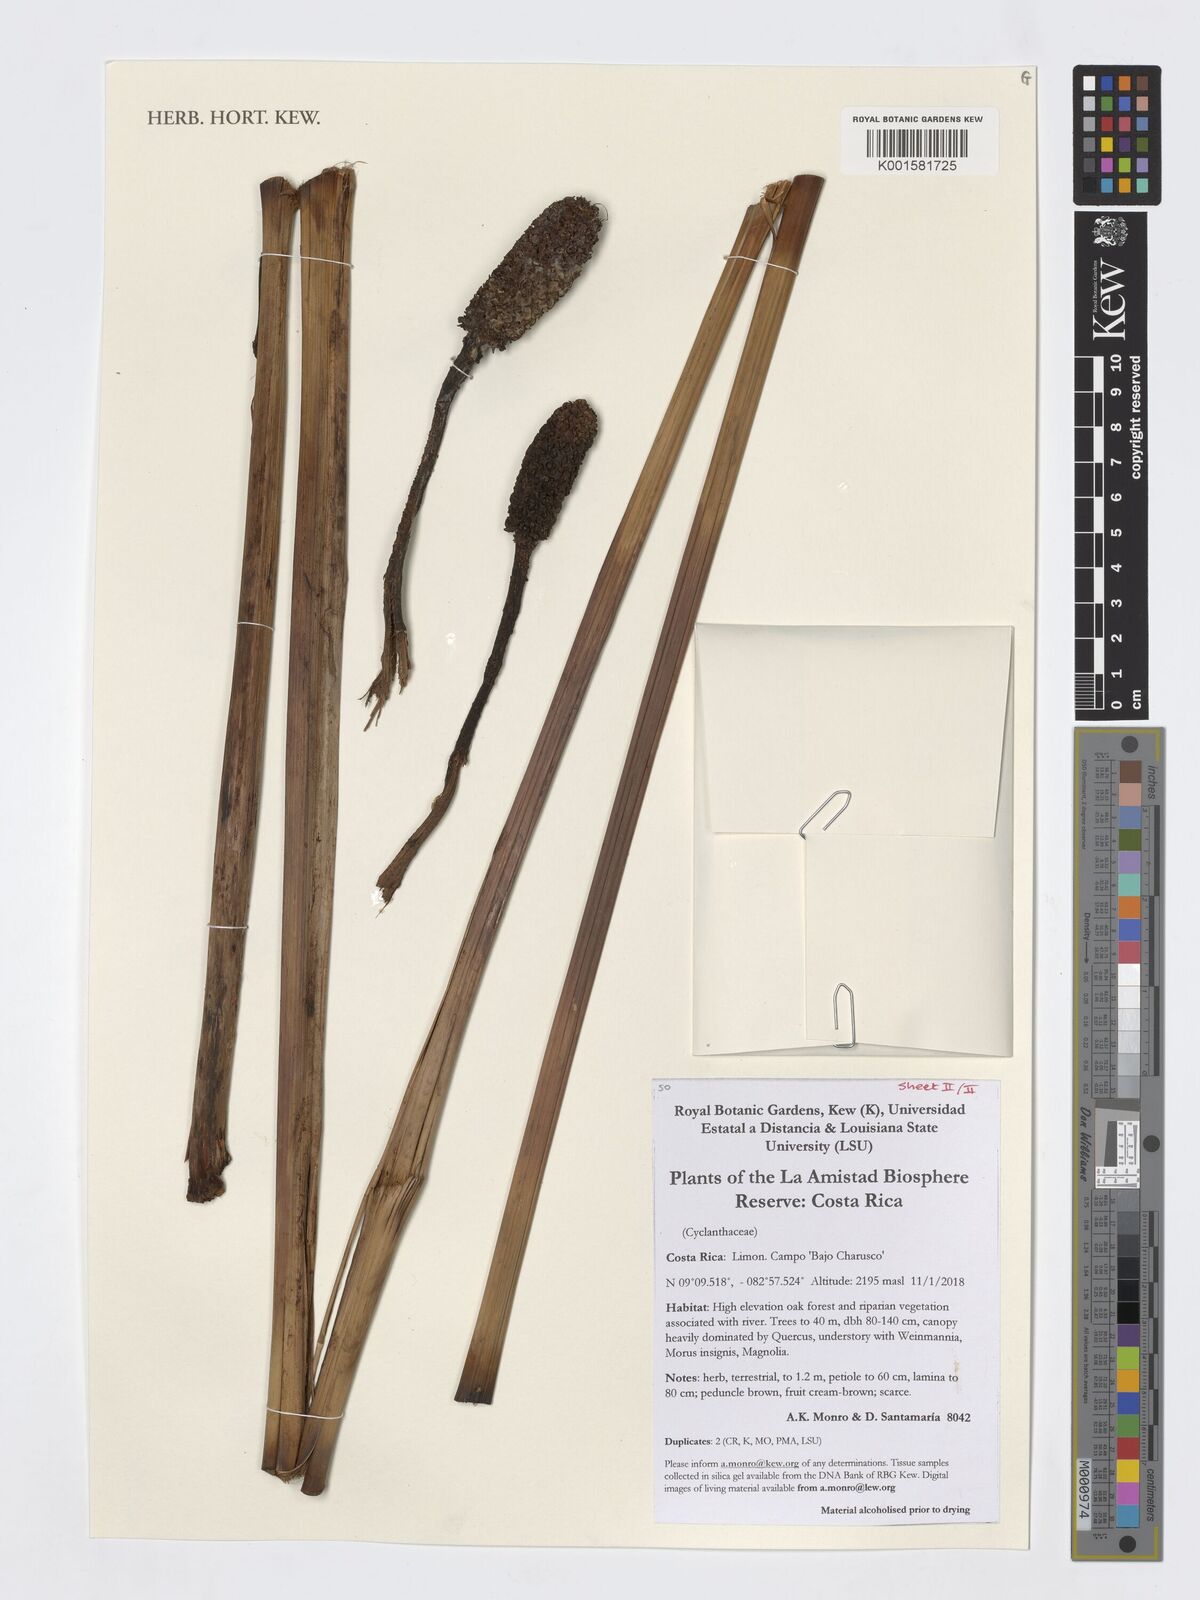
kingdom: Plantae
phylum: Tracheophyta
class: Liliopsida
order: Pandanales
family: Cyclanthaceae
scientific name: Cyclanthaceae
